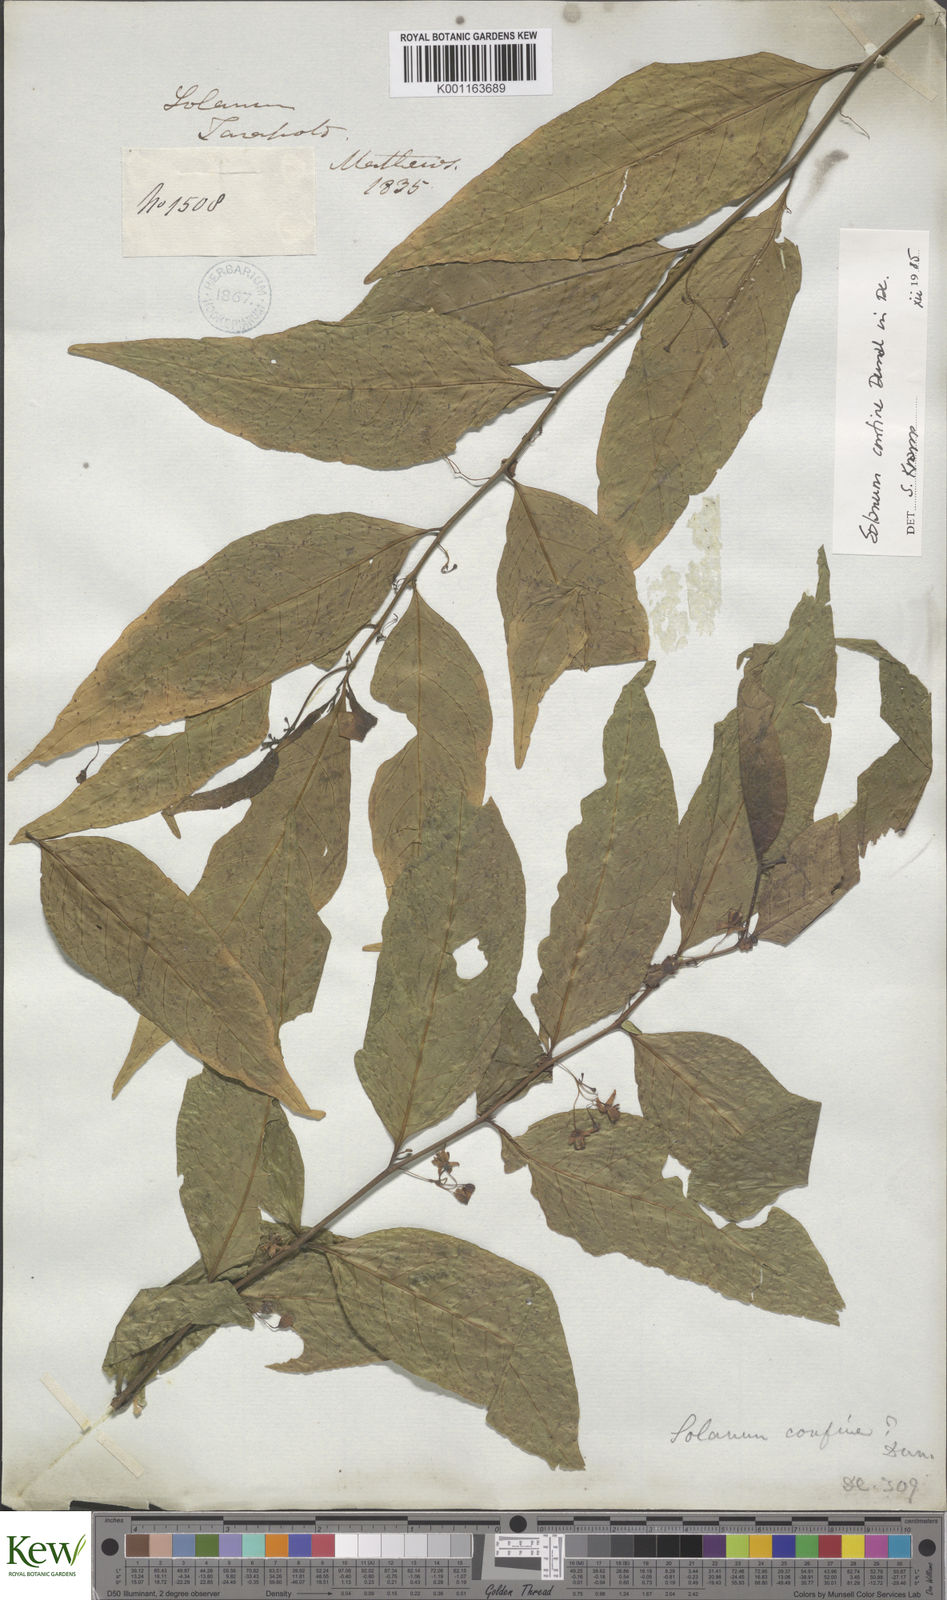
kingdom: Plantae
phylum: Tracheophyta
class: Magnoliopsida
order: Solanales
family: Solanaceae
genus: Solanum
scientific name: Solanum confine
